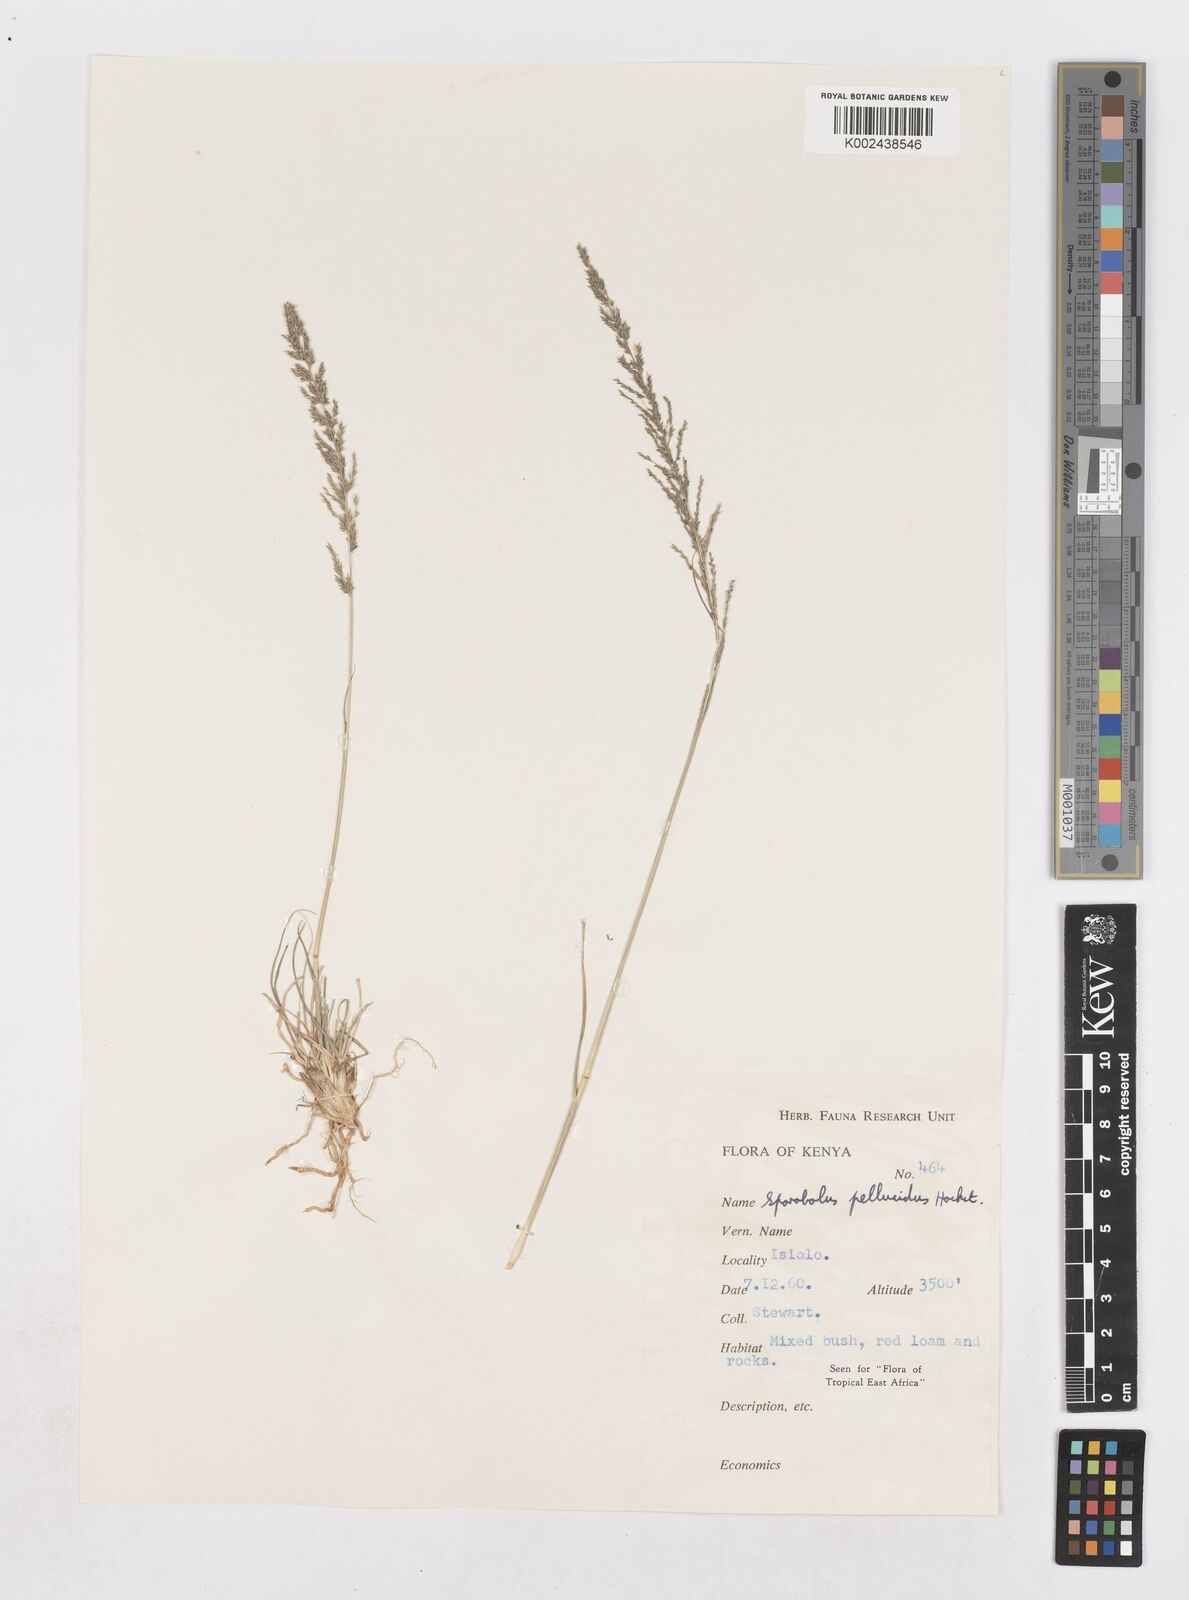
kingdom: Plantae
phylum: Tracheophyta
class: Liliopsida
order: Poales
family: Poaceae
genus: Sporobolus
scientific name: Sporobolus pellucidus
